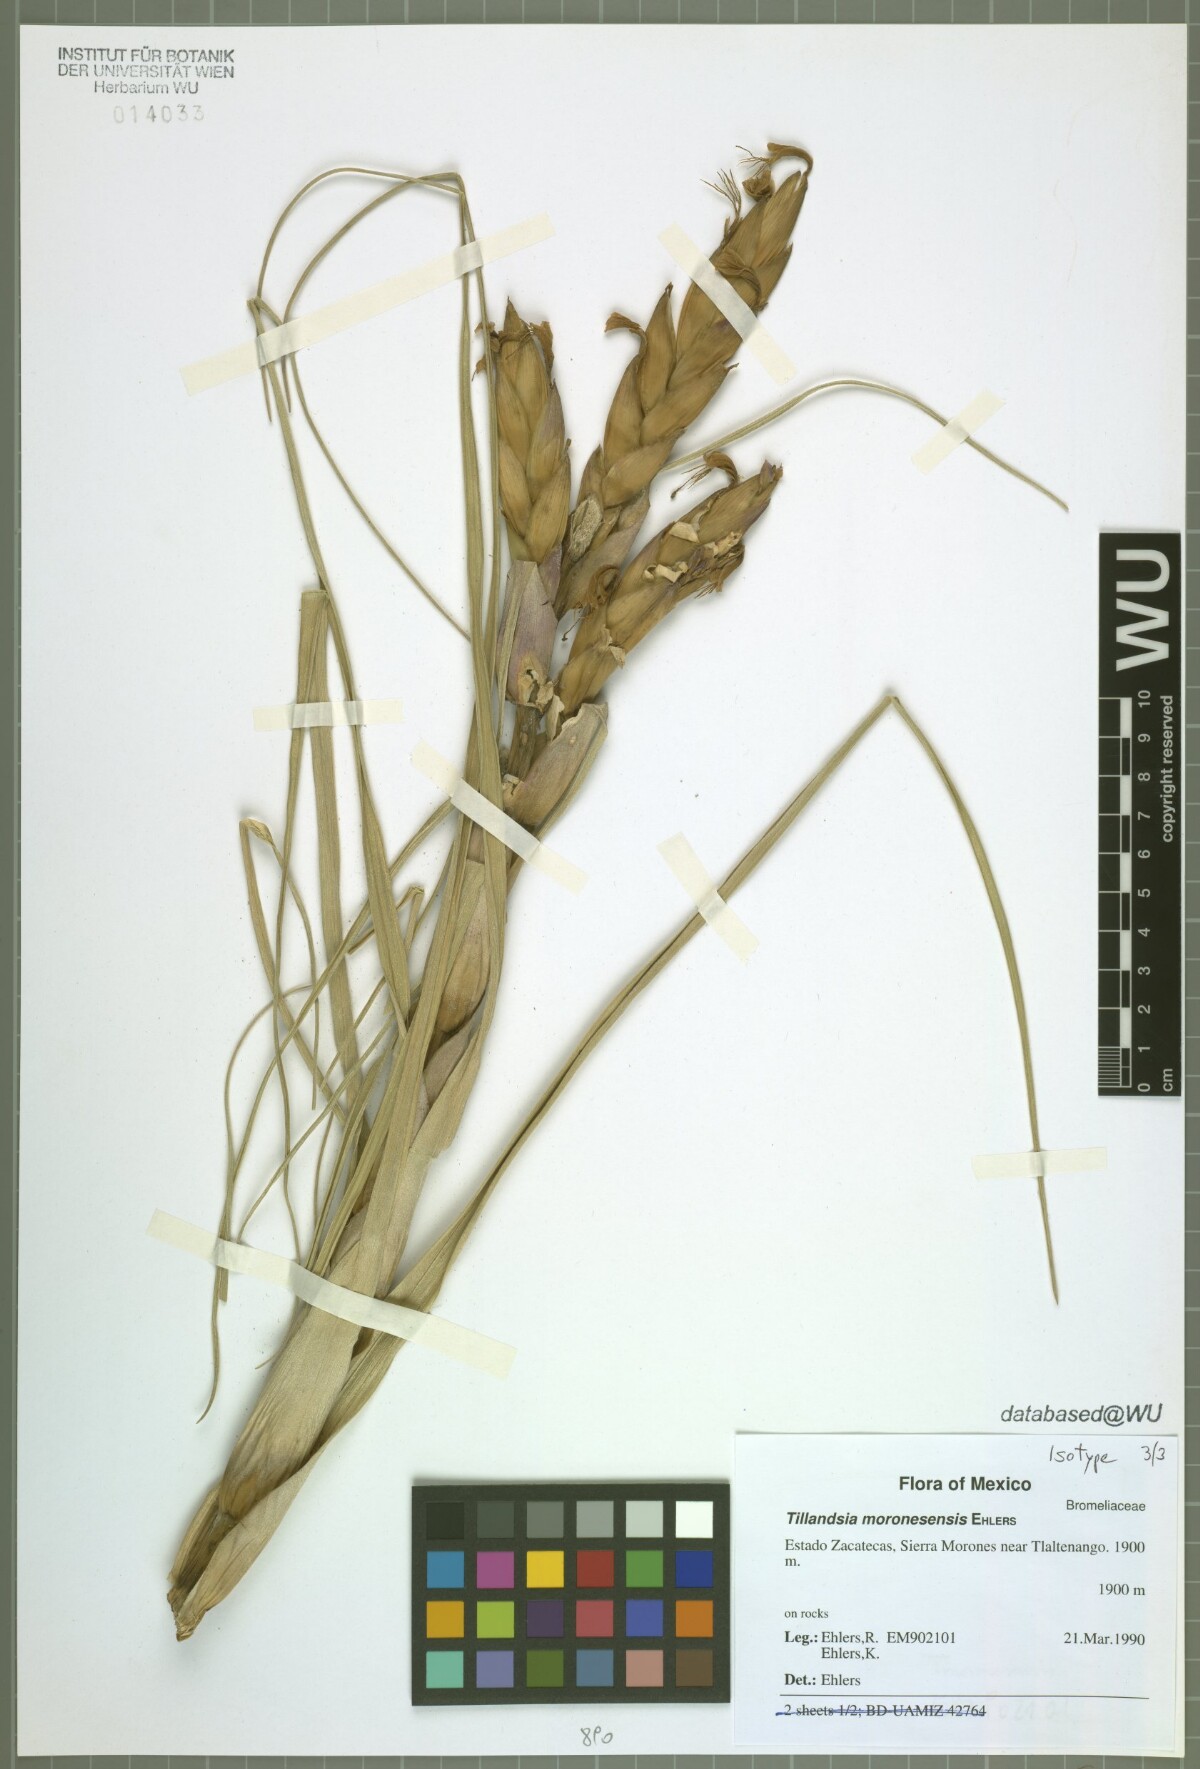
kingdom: Plantae
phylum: Tracheophyta
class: Liliopsida
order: Poales
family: Bromeliaceae
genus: Tillandsia
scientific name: Tillandsia moronesensis
